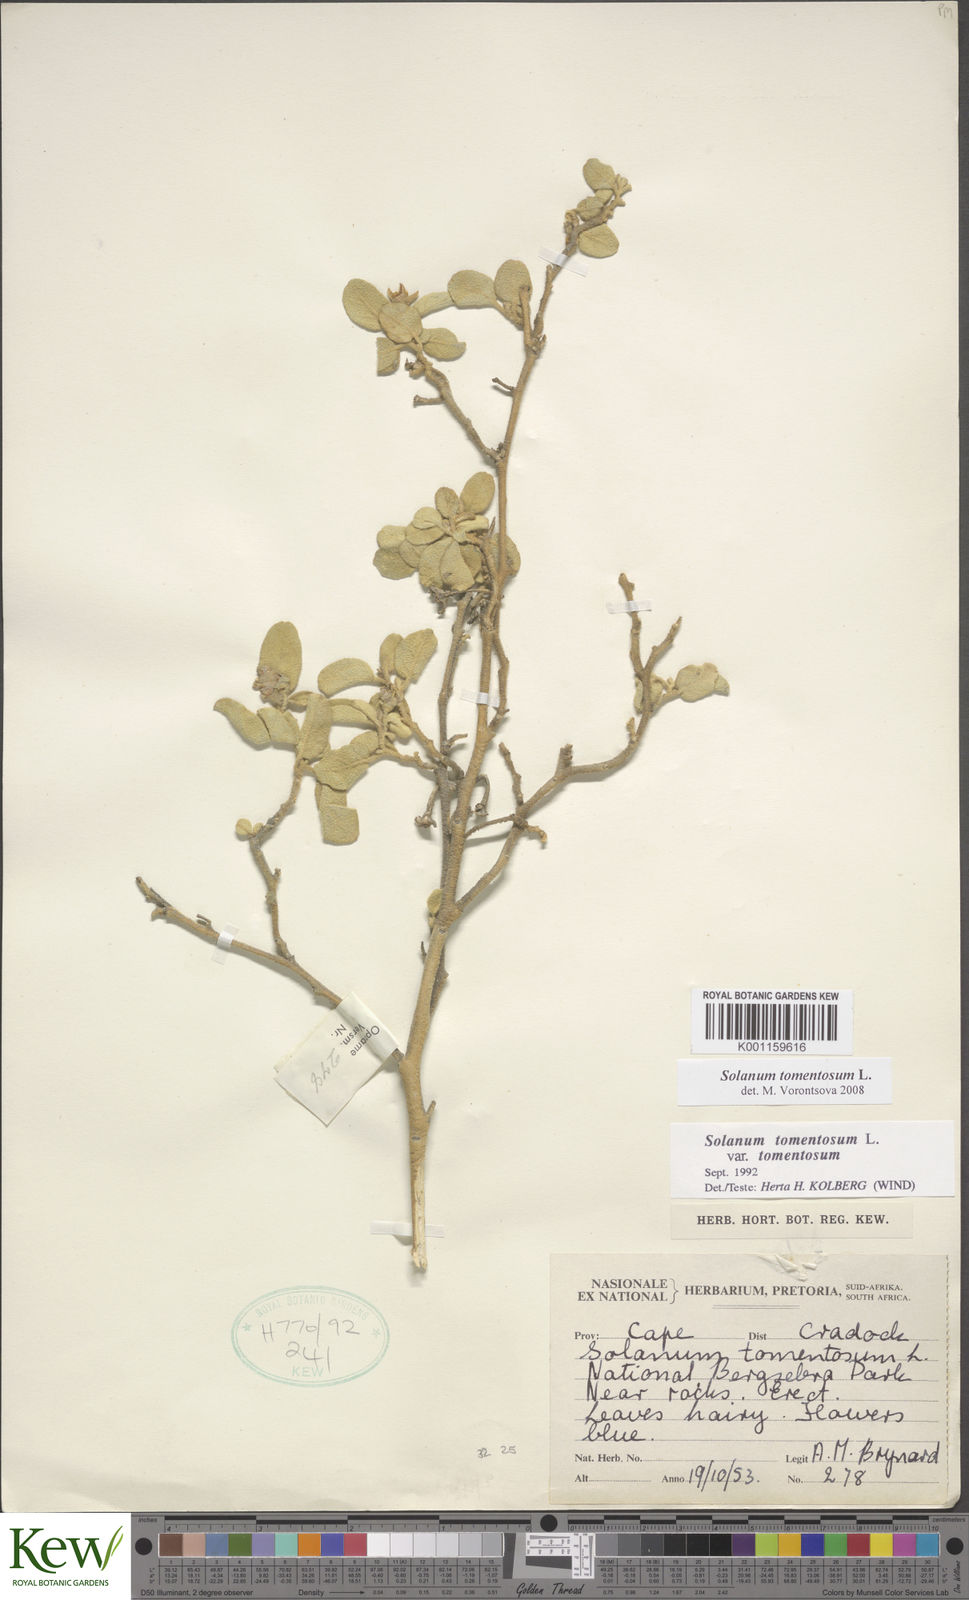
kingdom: Plantae
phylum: Tracheophyta
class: Magnoliopsida
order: Solanales
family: Solanaceae
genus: Solanum
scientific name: Solanum tomentosum
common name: Wild aubergine
